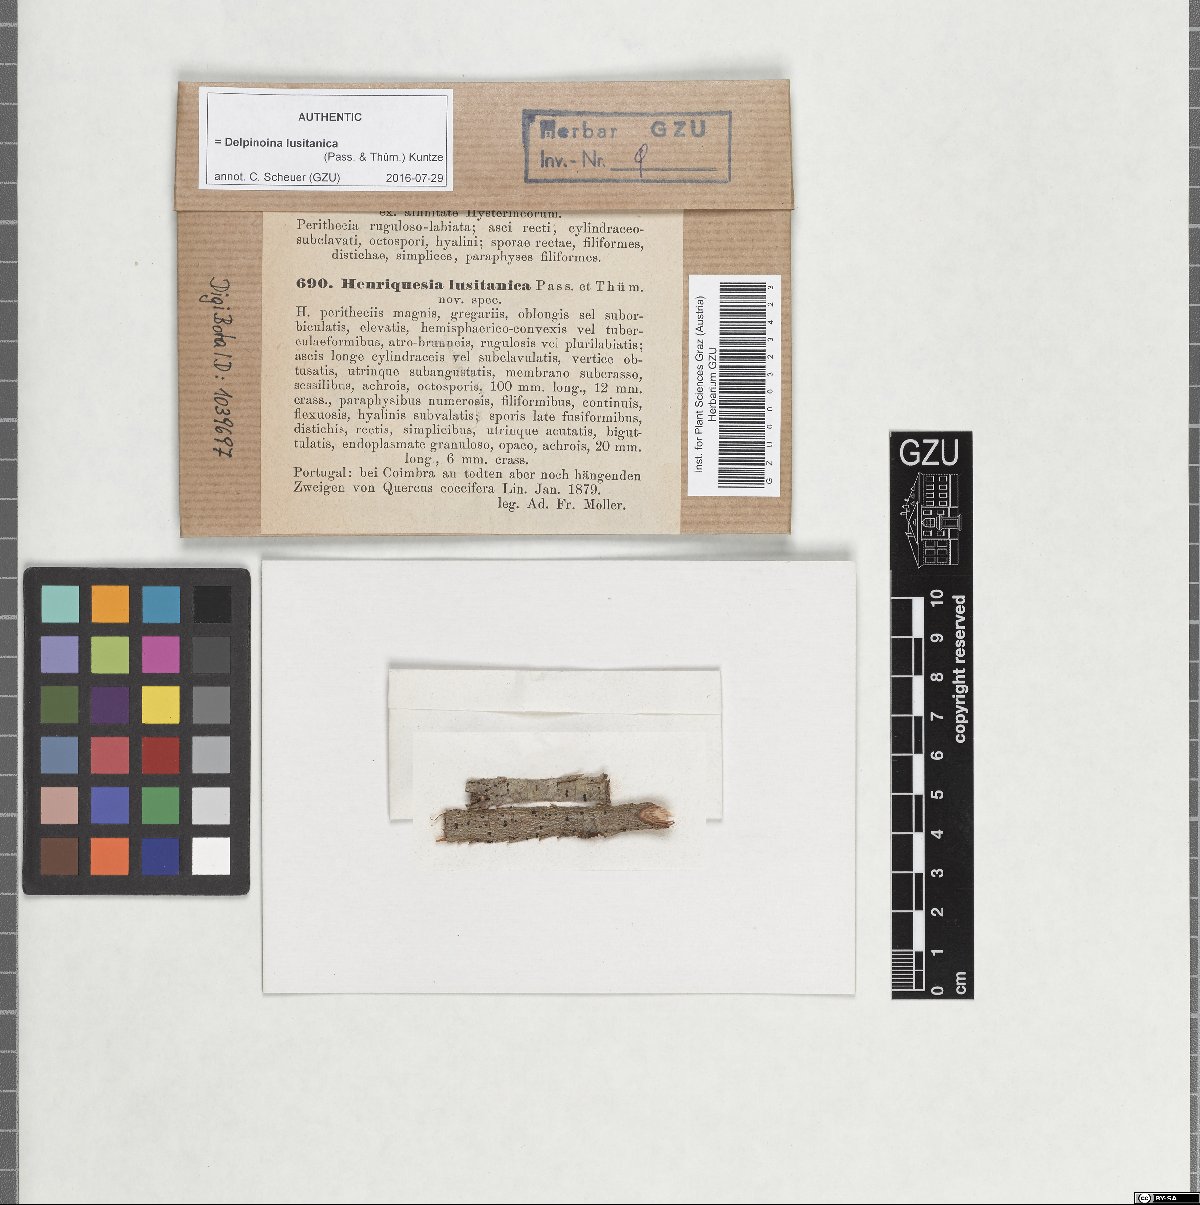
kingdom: Fungi
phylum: Ascomycota
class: Leotiomycetes
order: Rhytismatales
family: Ascodichaenaceae
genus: Delpinoina
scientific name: Delpinoina lusitanica
